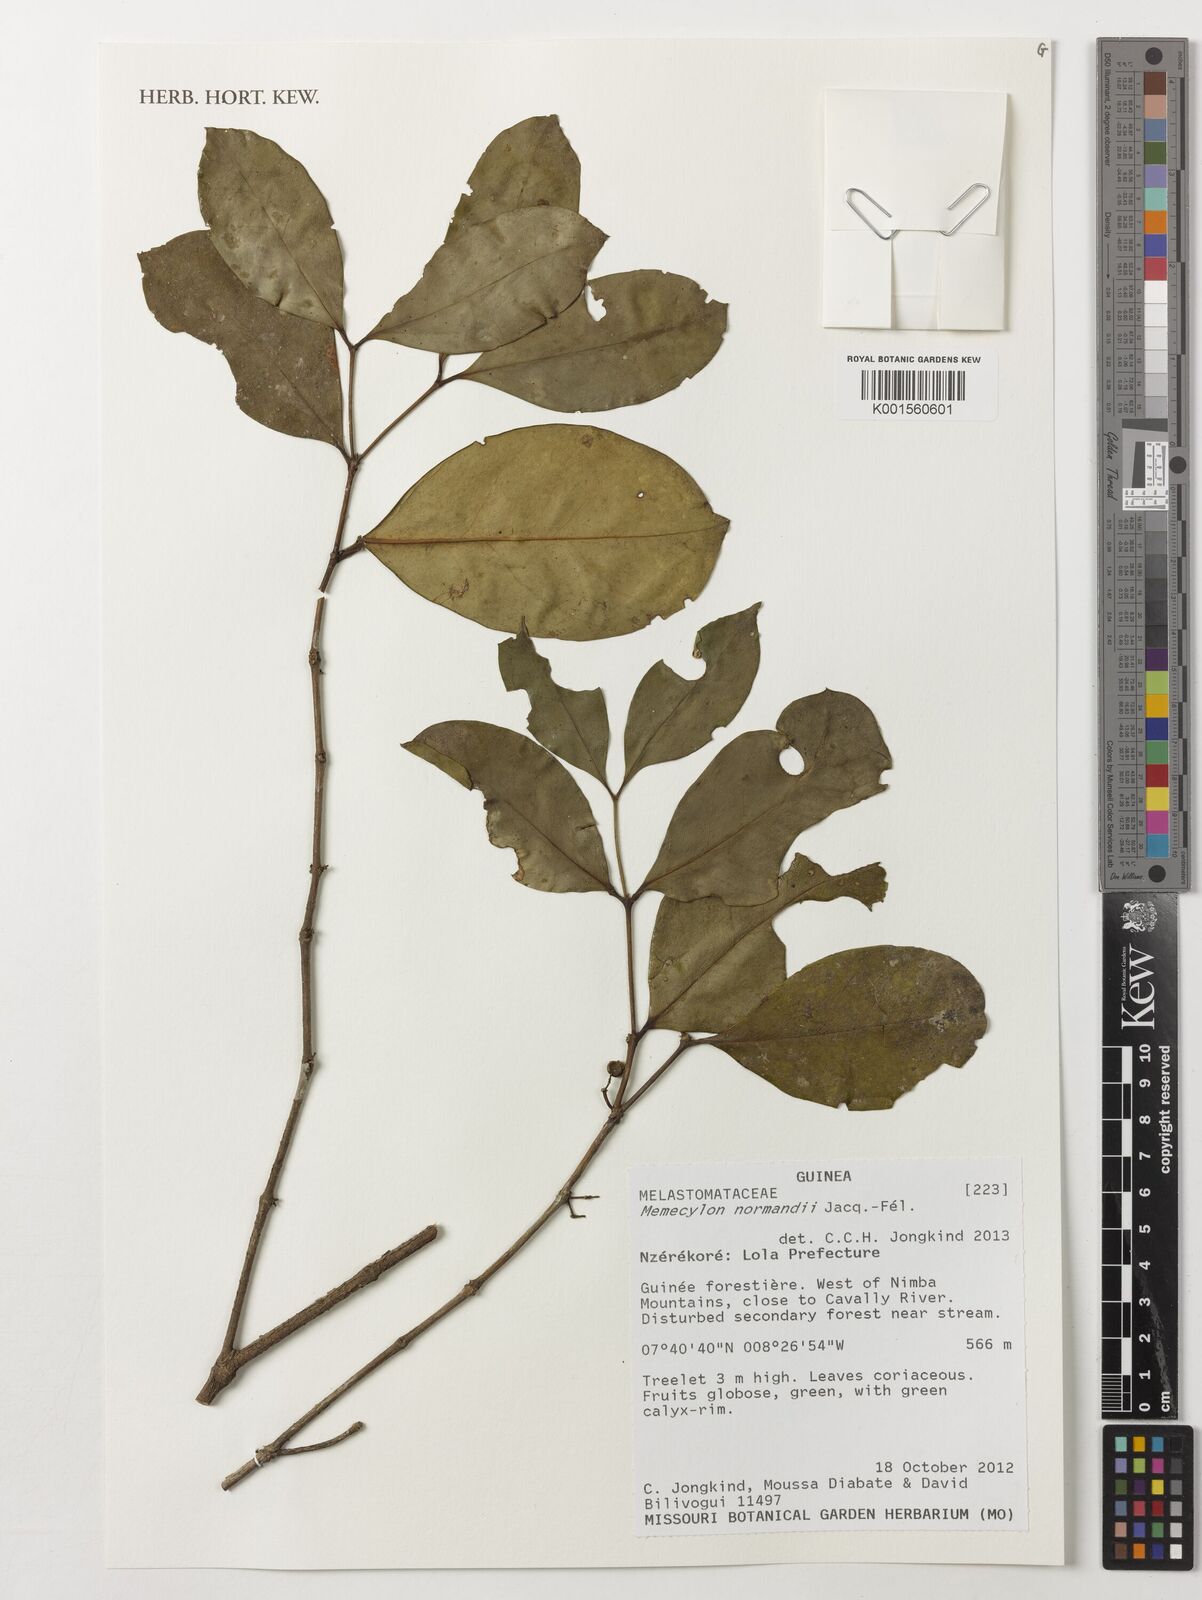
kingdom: Plantae
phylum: Tracheophyta
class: Magnoliopsida
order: Myrtales
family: Melastomataceae
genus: Memecylon
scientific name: Memecylon normandii
